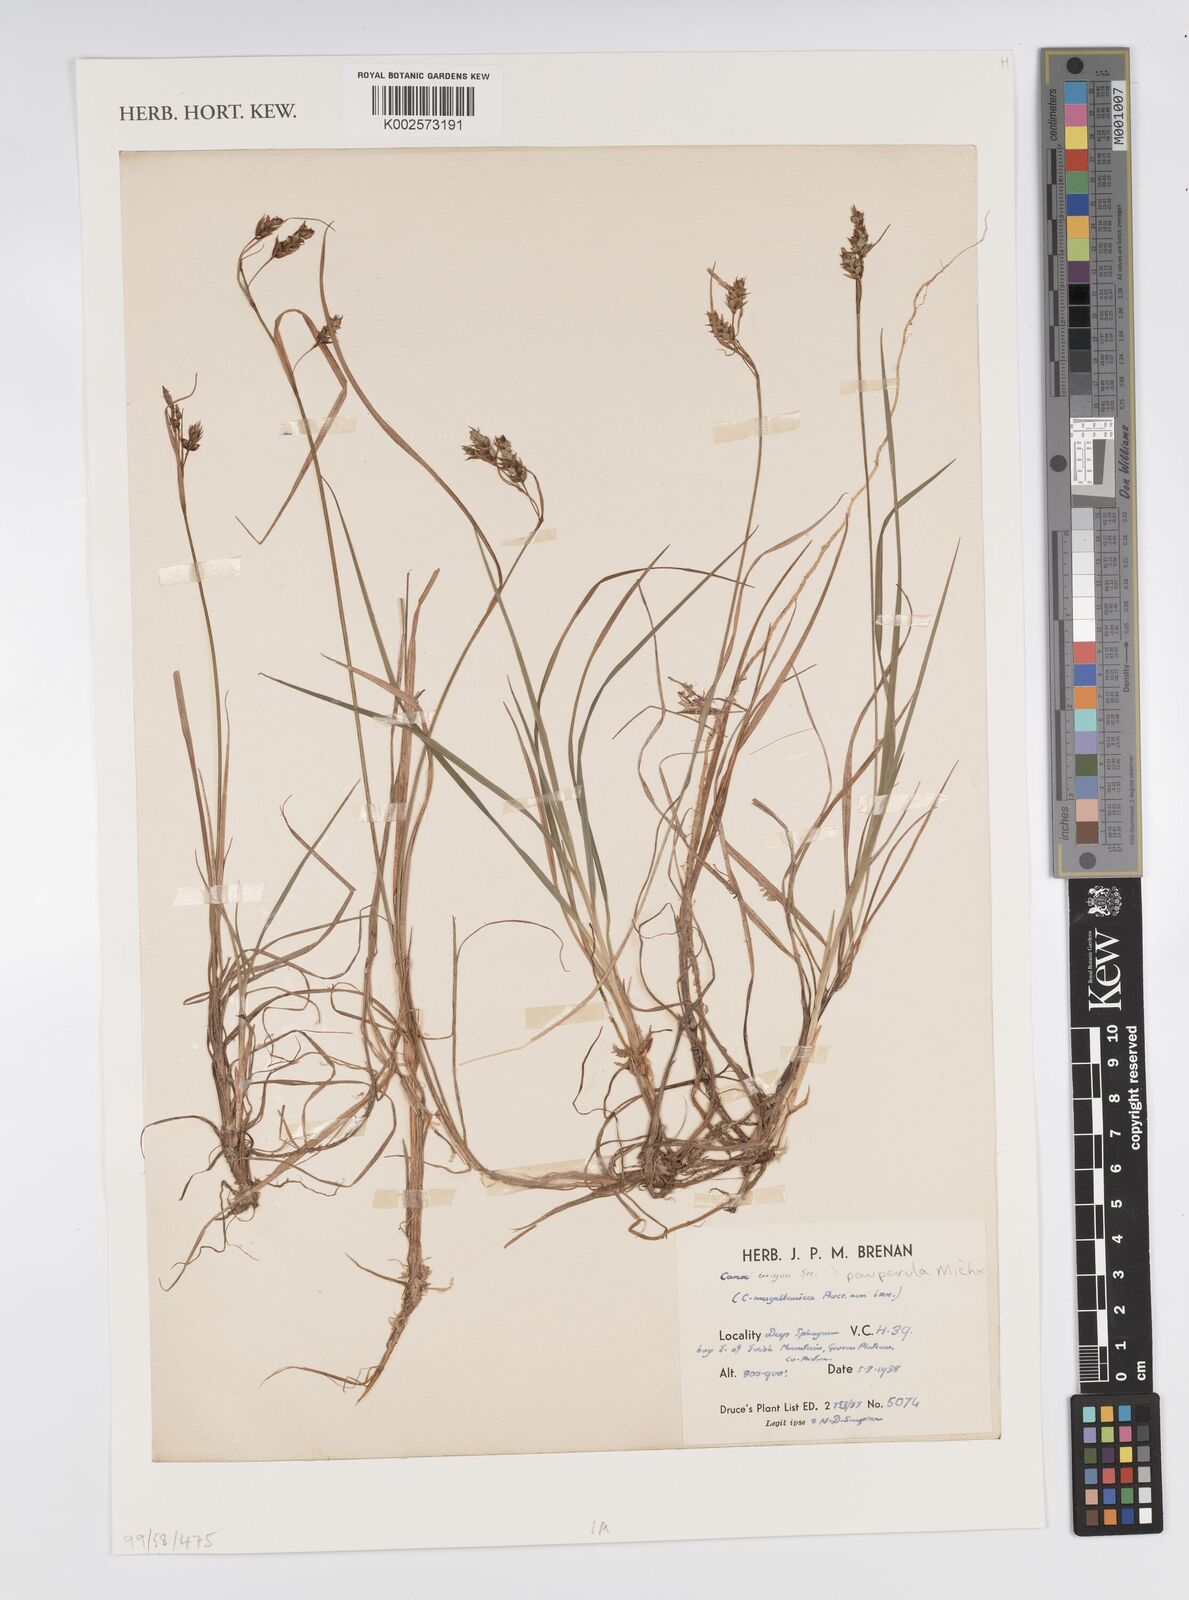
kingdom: Plantae
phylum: Tracheophyta
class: Liliopsida
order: Poales
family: Cyperaceae
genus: Carex
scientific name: Carex magellanica
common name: Bog sedge
